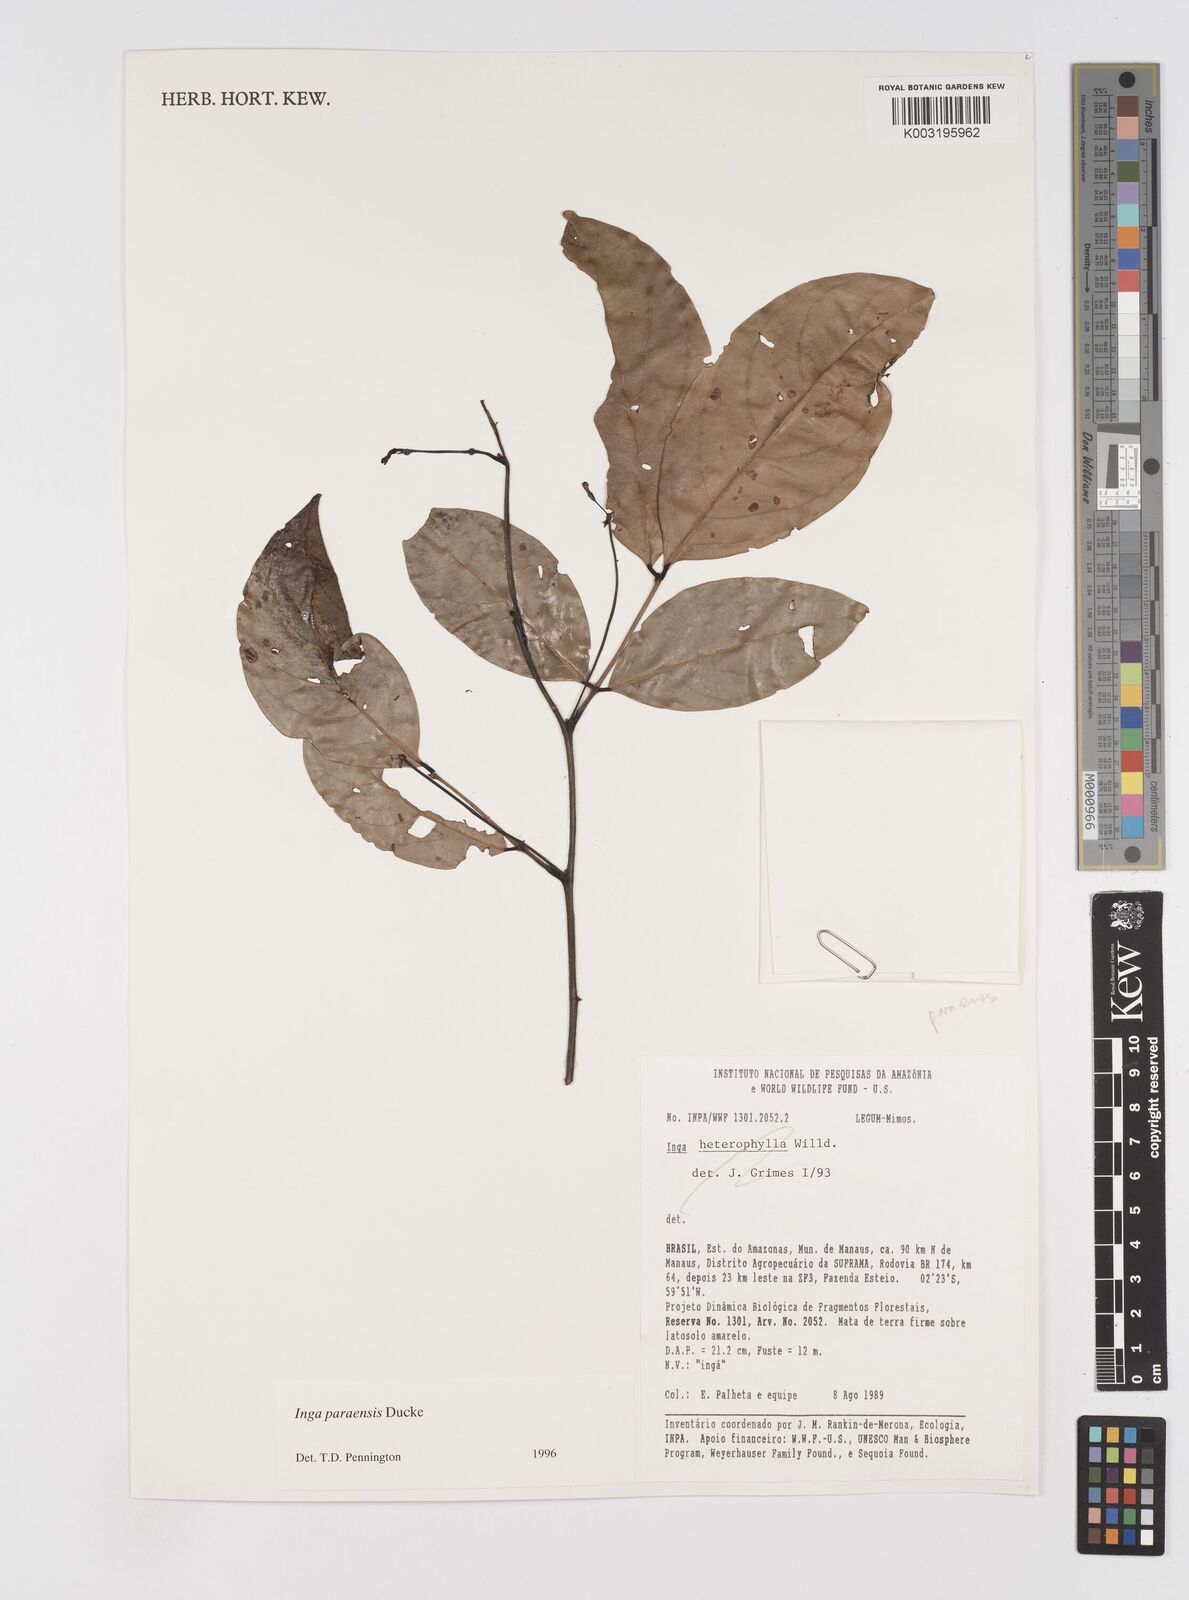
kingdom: Plantae
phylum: Tracheophyta
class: Magnoliopsida
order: Fabales
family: Fabaceae
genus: Inga
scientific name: Inga paraensis
